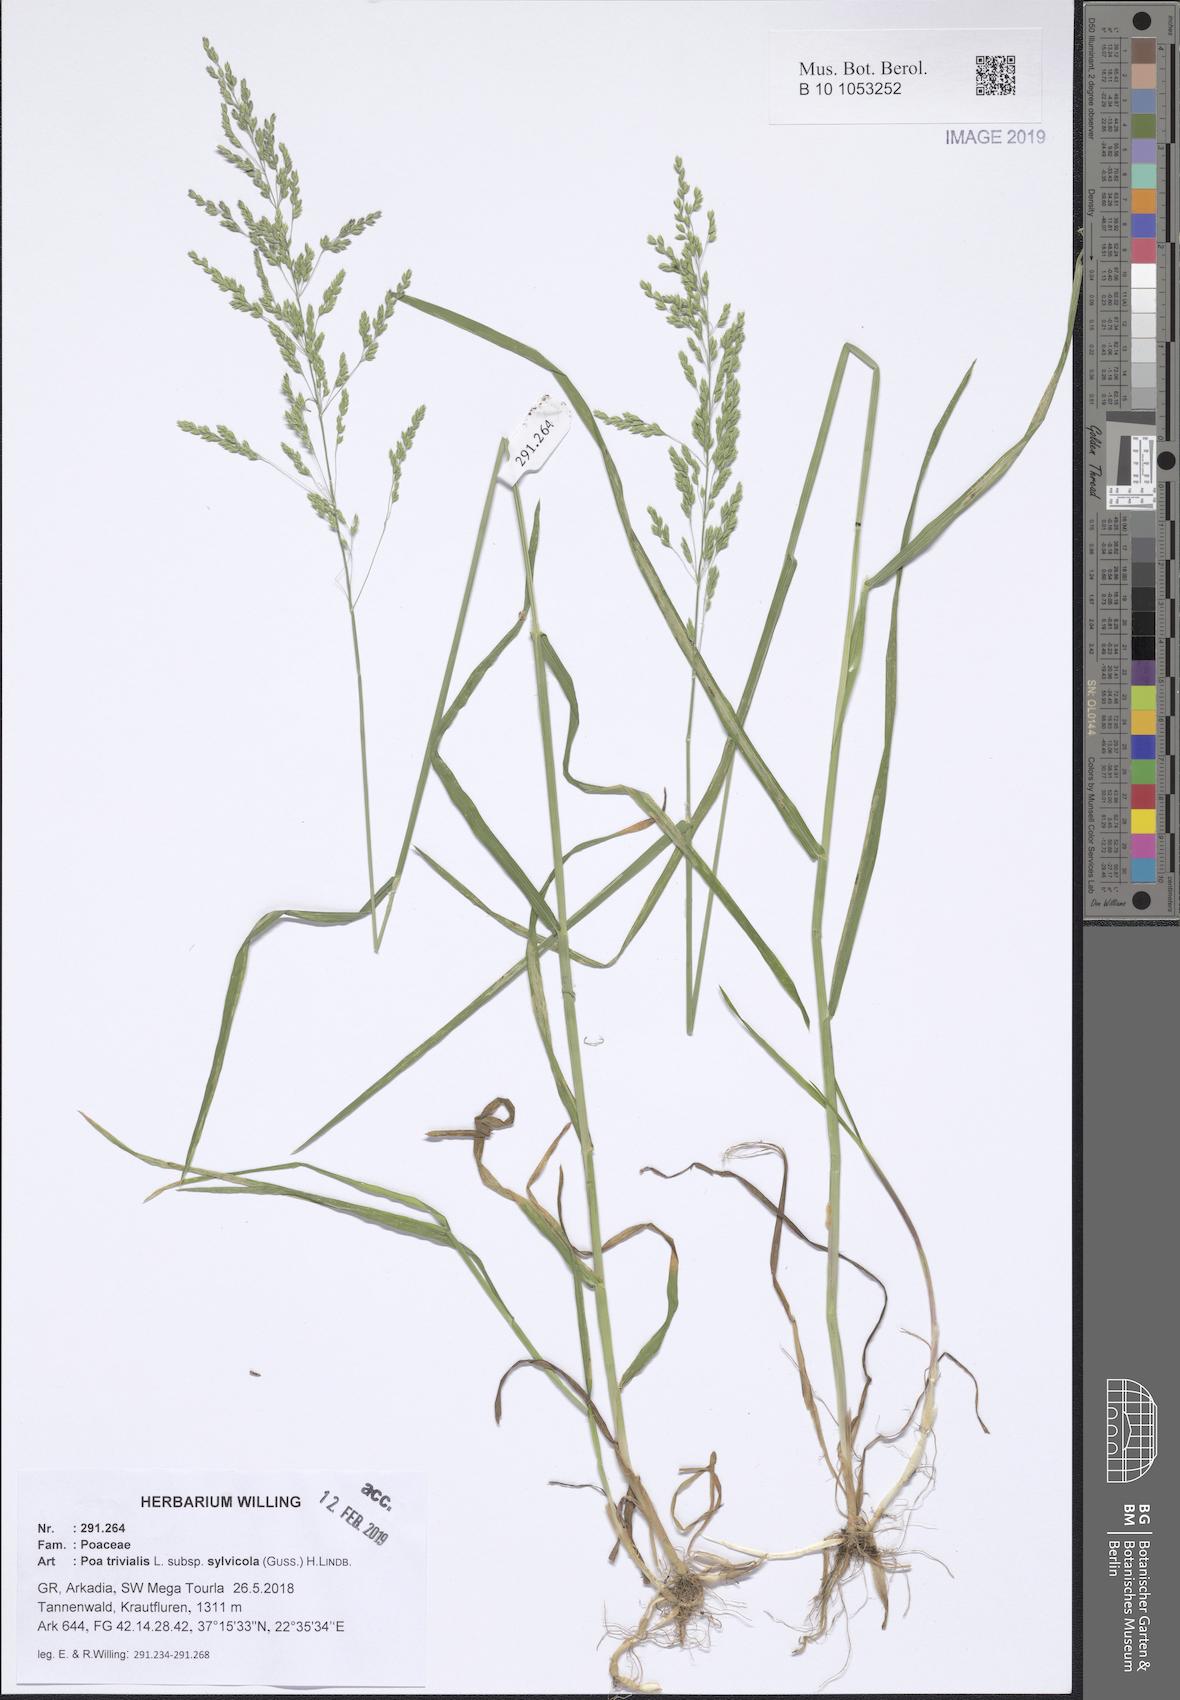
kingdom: Plantae
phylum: Tracheophyta
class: Liliopsida
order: Poales
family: Poaceae
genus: Poa
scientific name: Poa trivialis
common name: Rough bluegrass
